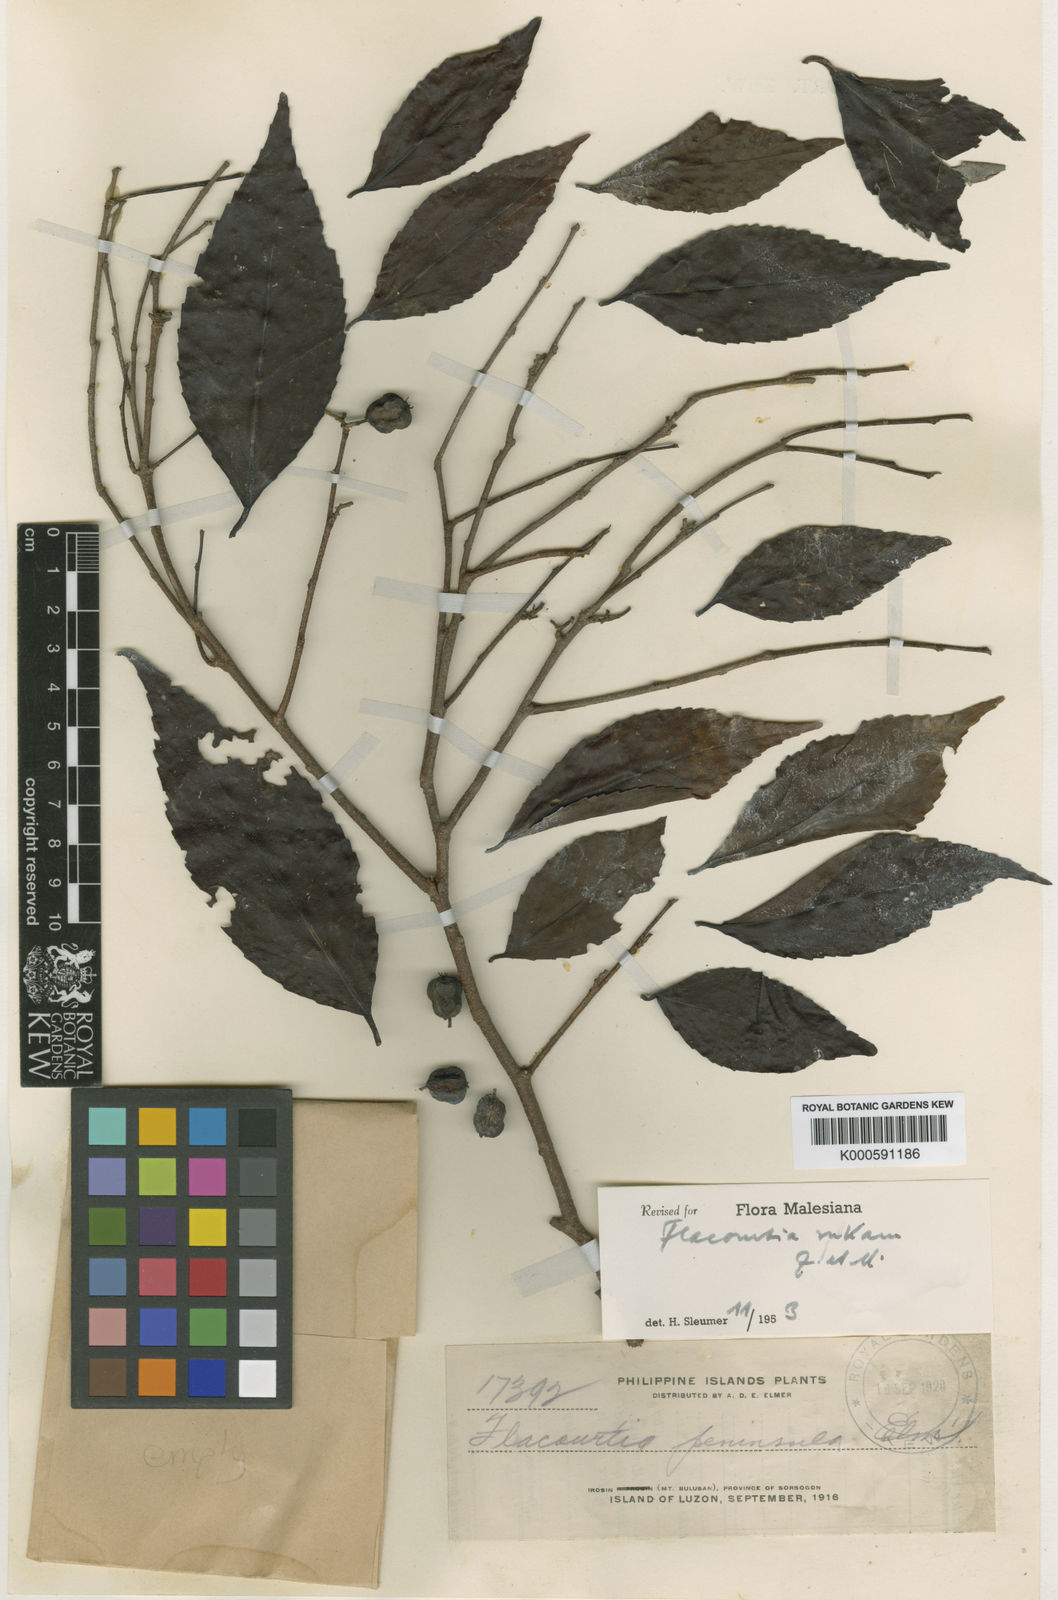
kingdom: Plantae
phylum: Tracheophyta
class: Magnoliopsida
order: Malpighiales
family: Salicaceae
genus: Flacourtia
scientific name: Flacourtia rukam
